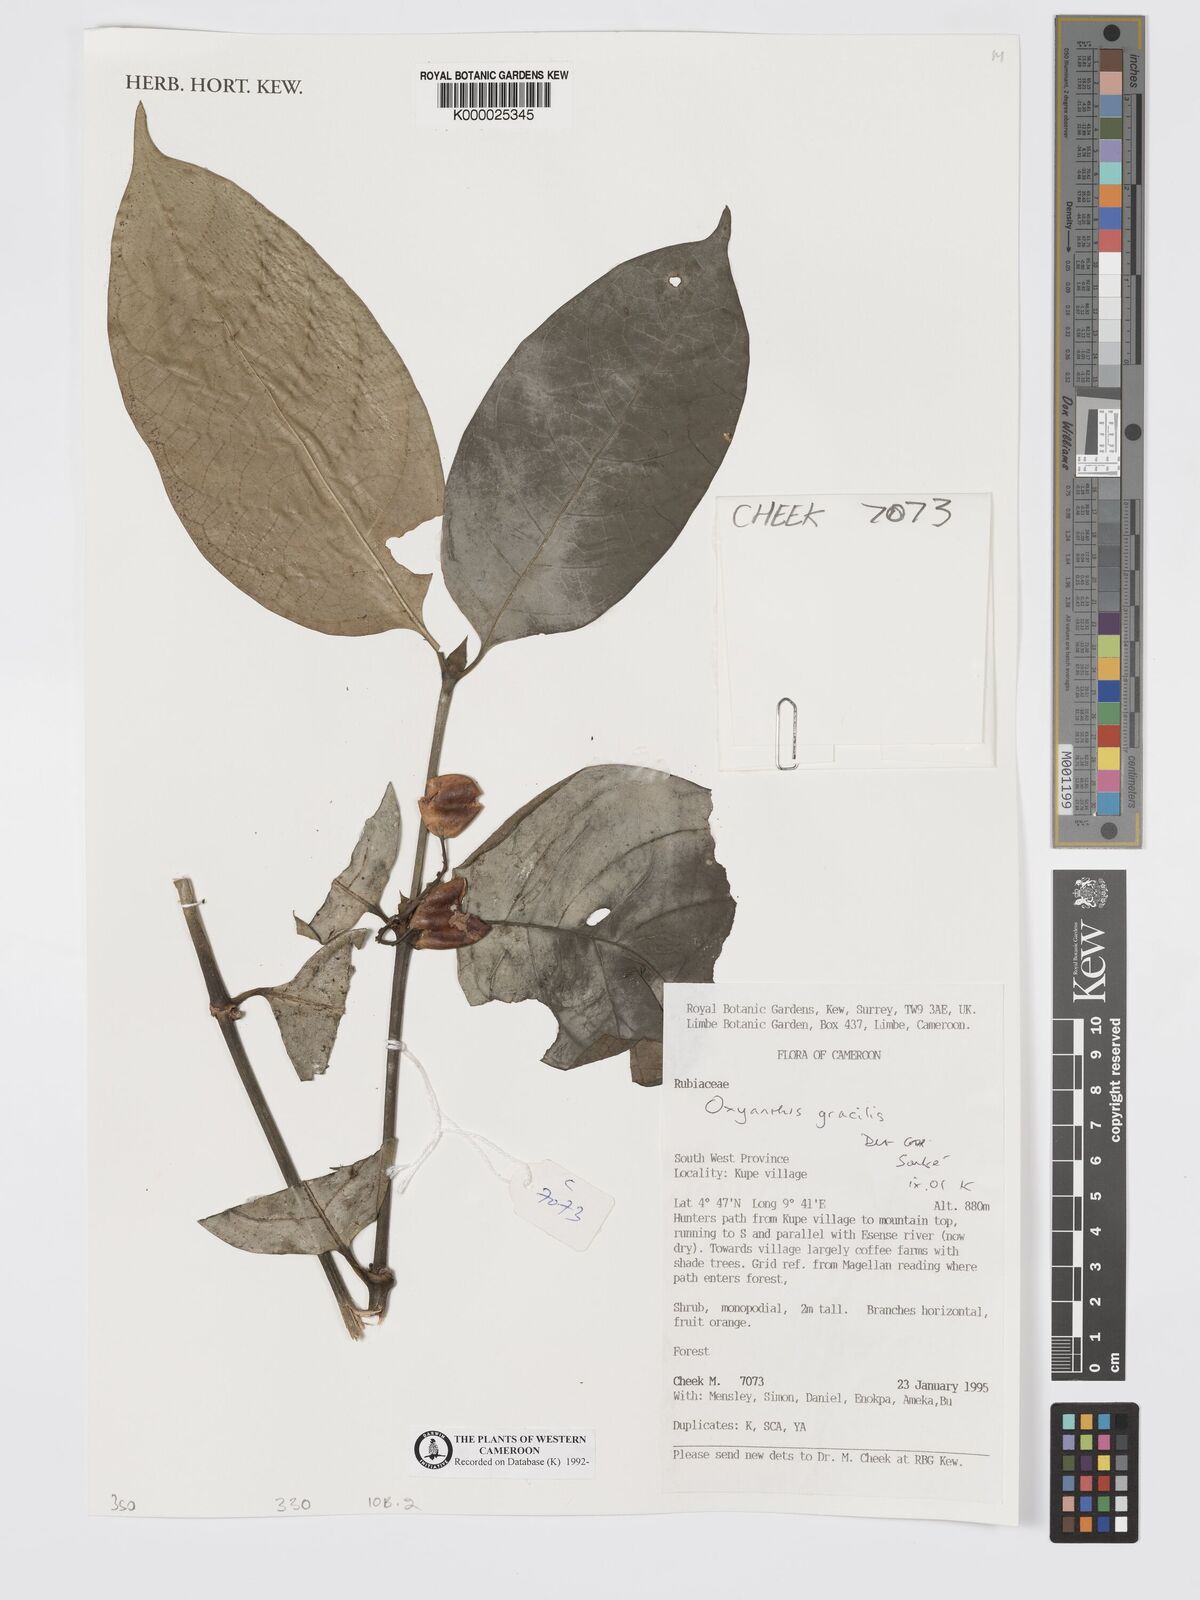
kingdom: Plantae
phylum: Tracheophyta
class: Magnoliopsida
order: Gentianales
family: Rubiaceae
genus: Oxyanthus
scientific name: Oxyanthus gracilis
